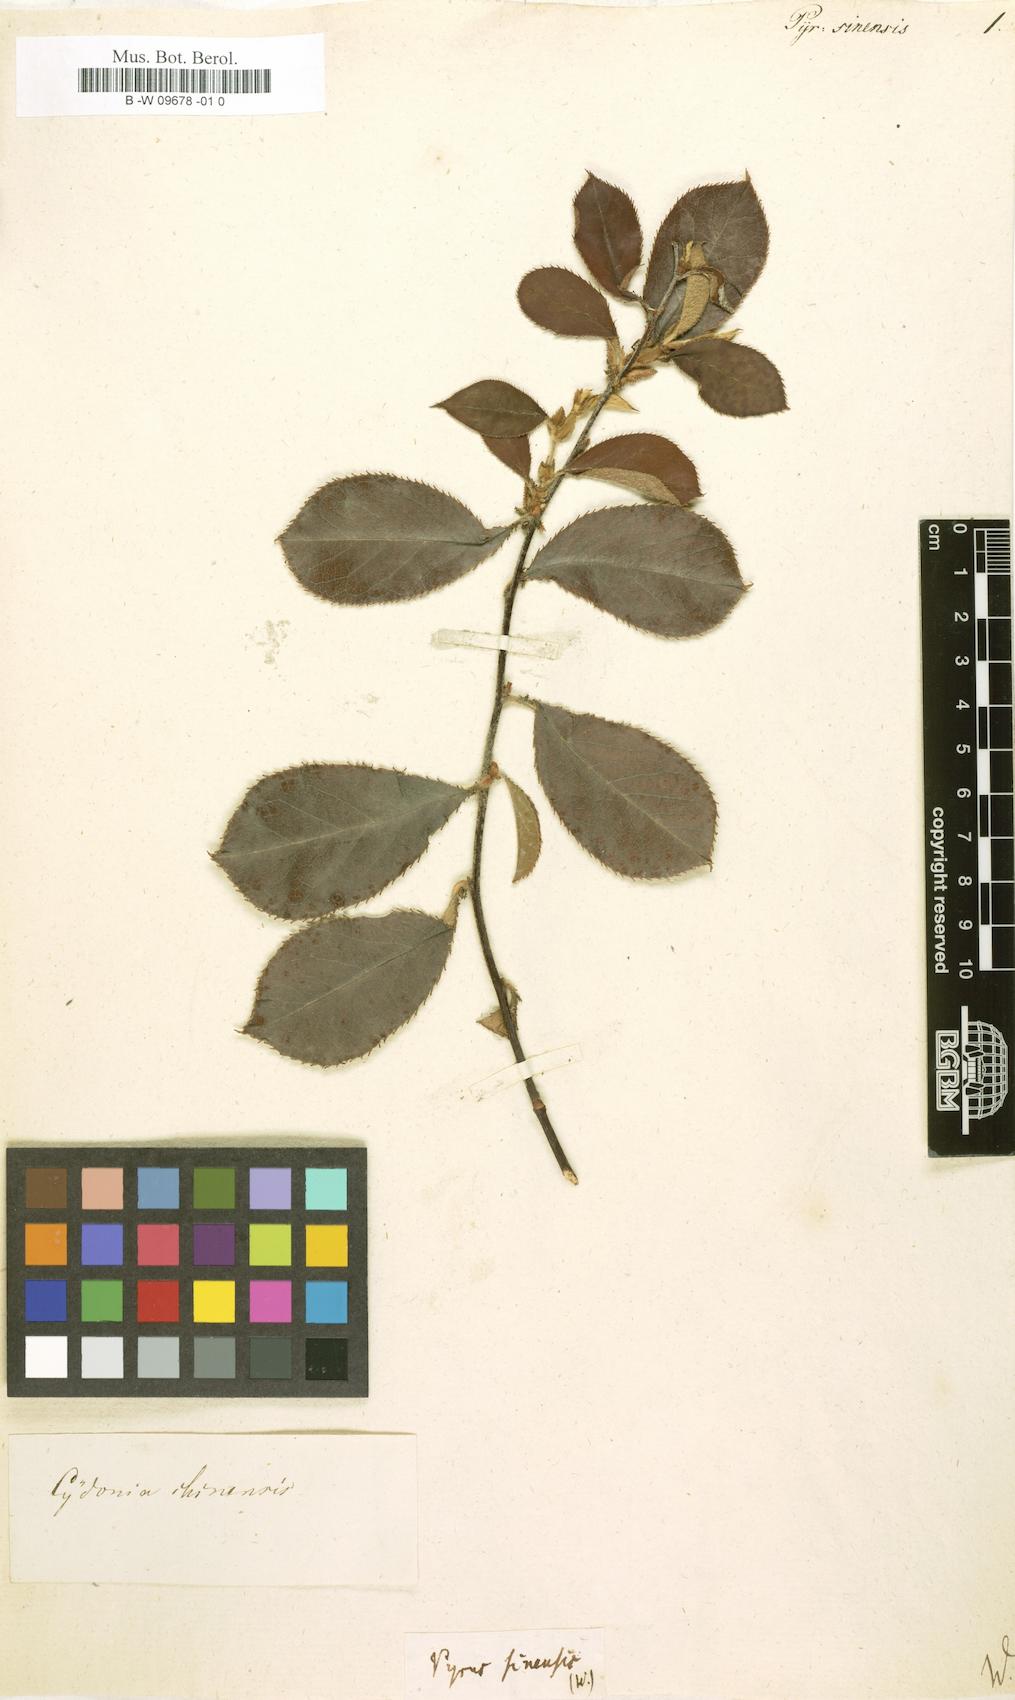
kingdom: Plantae
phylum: Tracheophyta
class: Magnoliopsida
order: Rosales
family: Rosaceae
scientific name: Rosaceae
